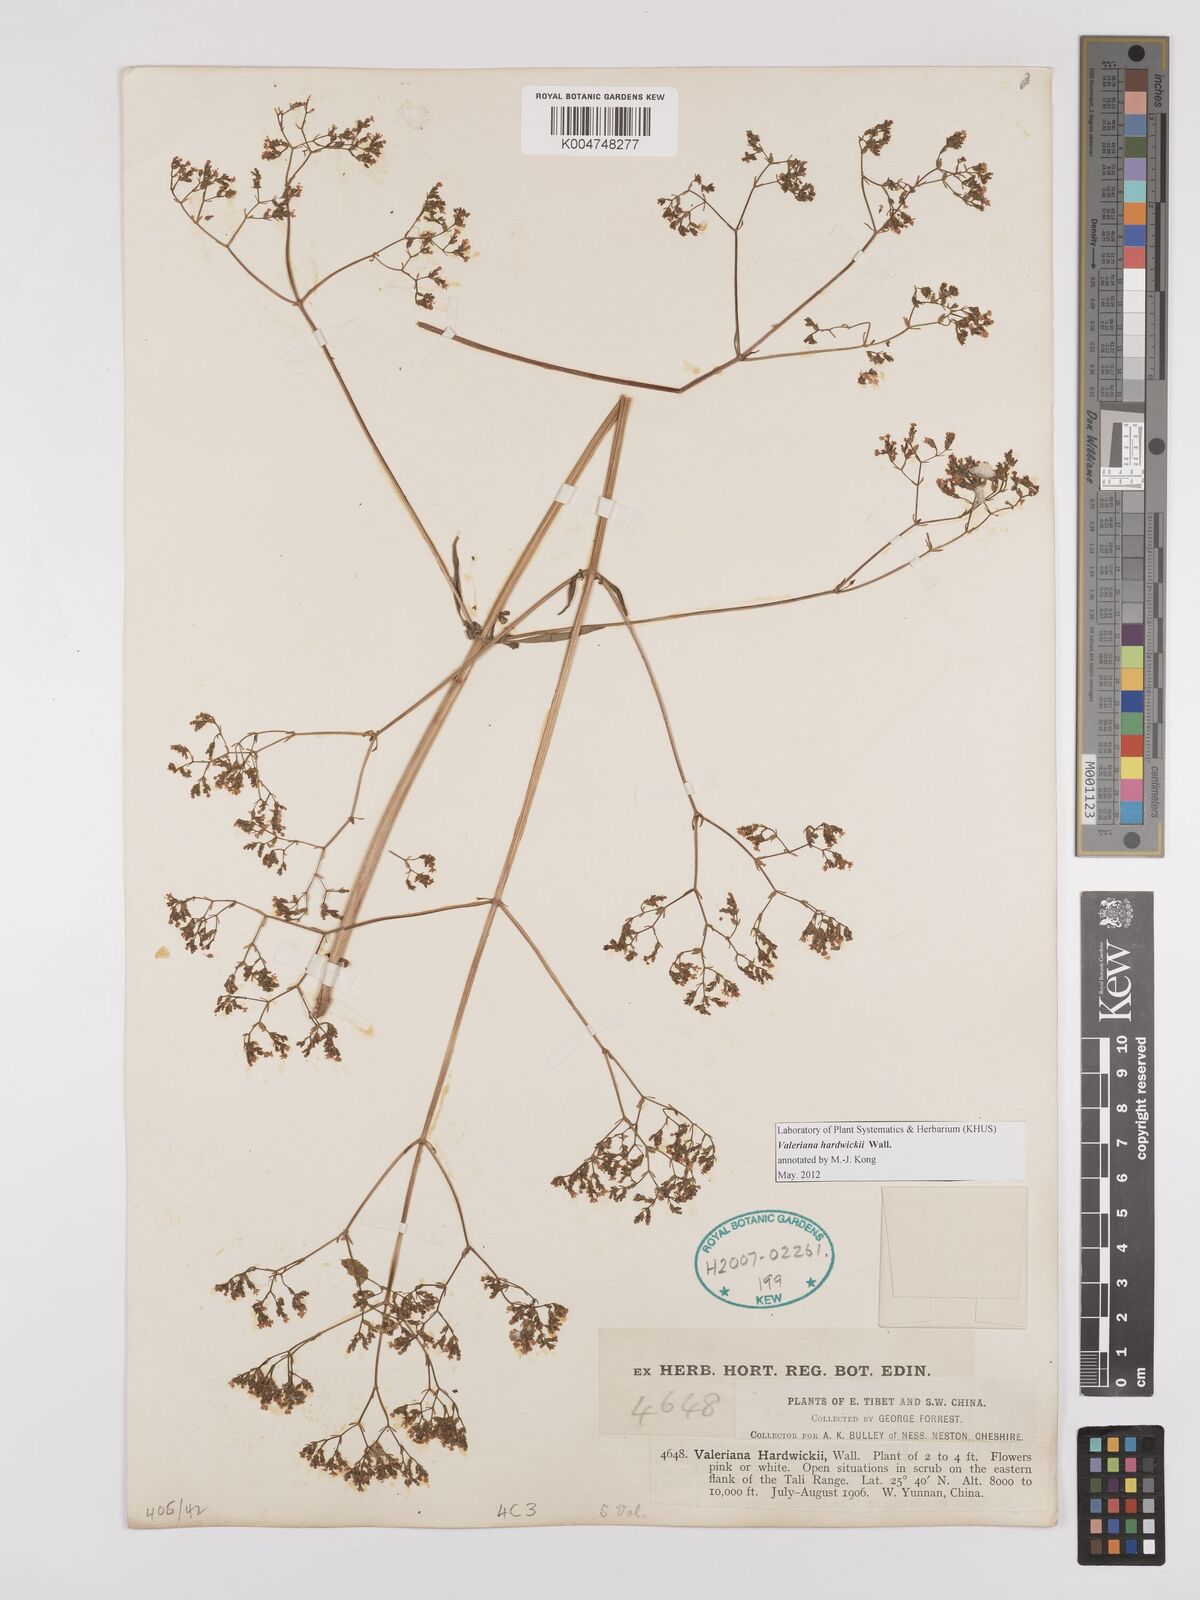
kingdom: Plantae
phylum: Tracheophyta
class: Magnoliopsida
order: Dipsacales
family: Caprifoliaceae
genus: Valeriana
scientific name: Valeriana hardwickei
